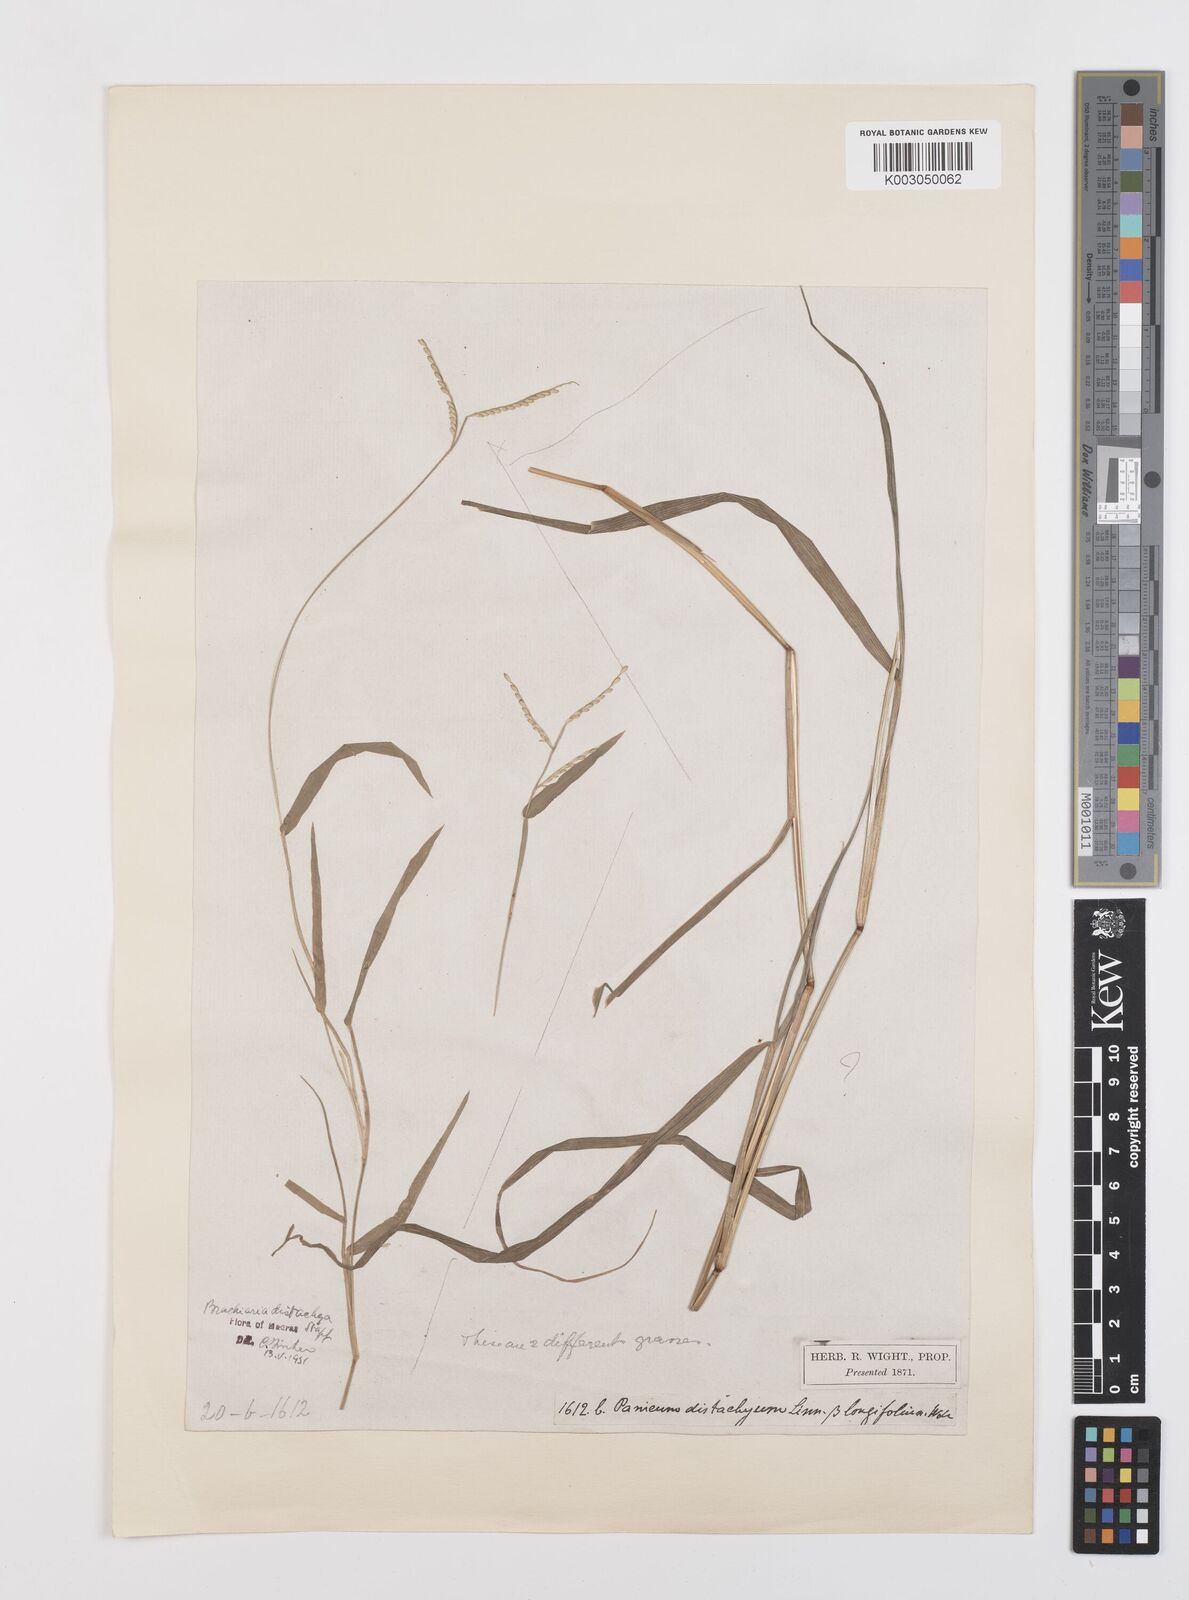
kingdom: Plantae
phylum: Tracheophyta
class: Liliopsida
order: Poales
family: Poaceae
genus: Urochloa
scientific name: Urochloa distachyos
